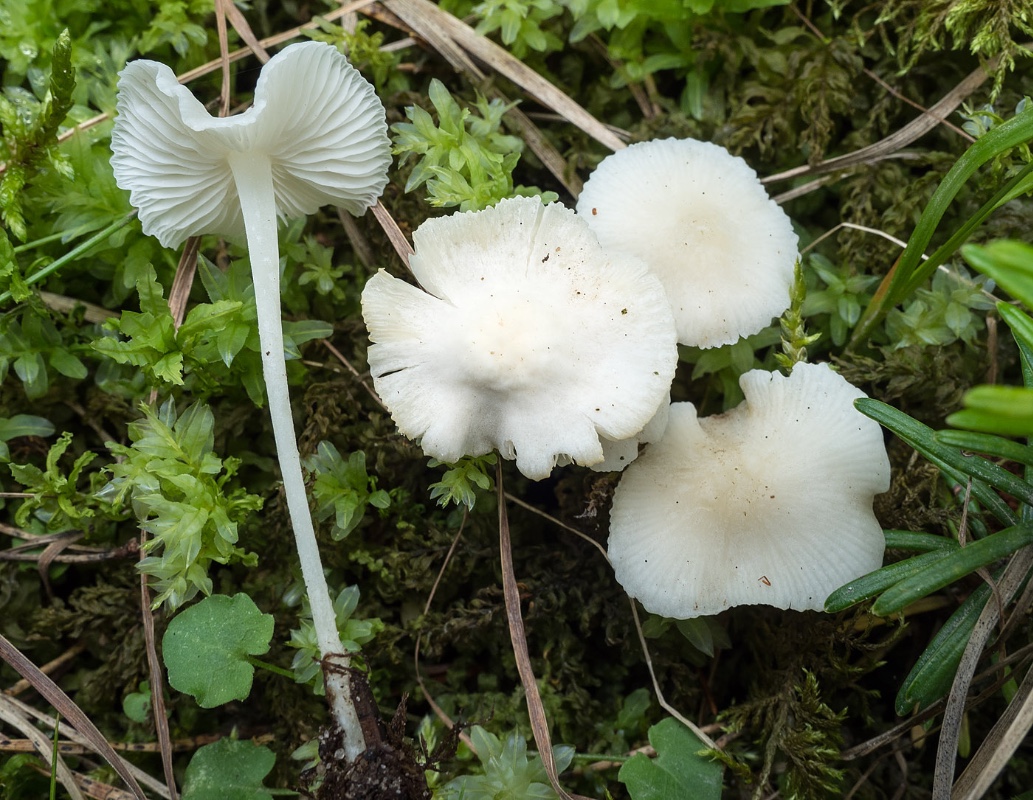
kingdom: Fungi
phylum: Basidiomycota
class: Agaricomycetes
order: Agaricales
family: Mycenaceae
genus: Hemimycena
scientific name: Hemimycena cucullata
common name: tætbladet huesvamp
